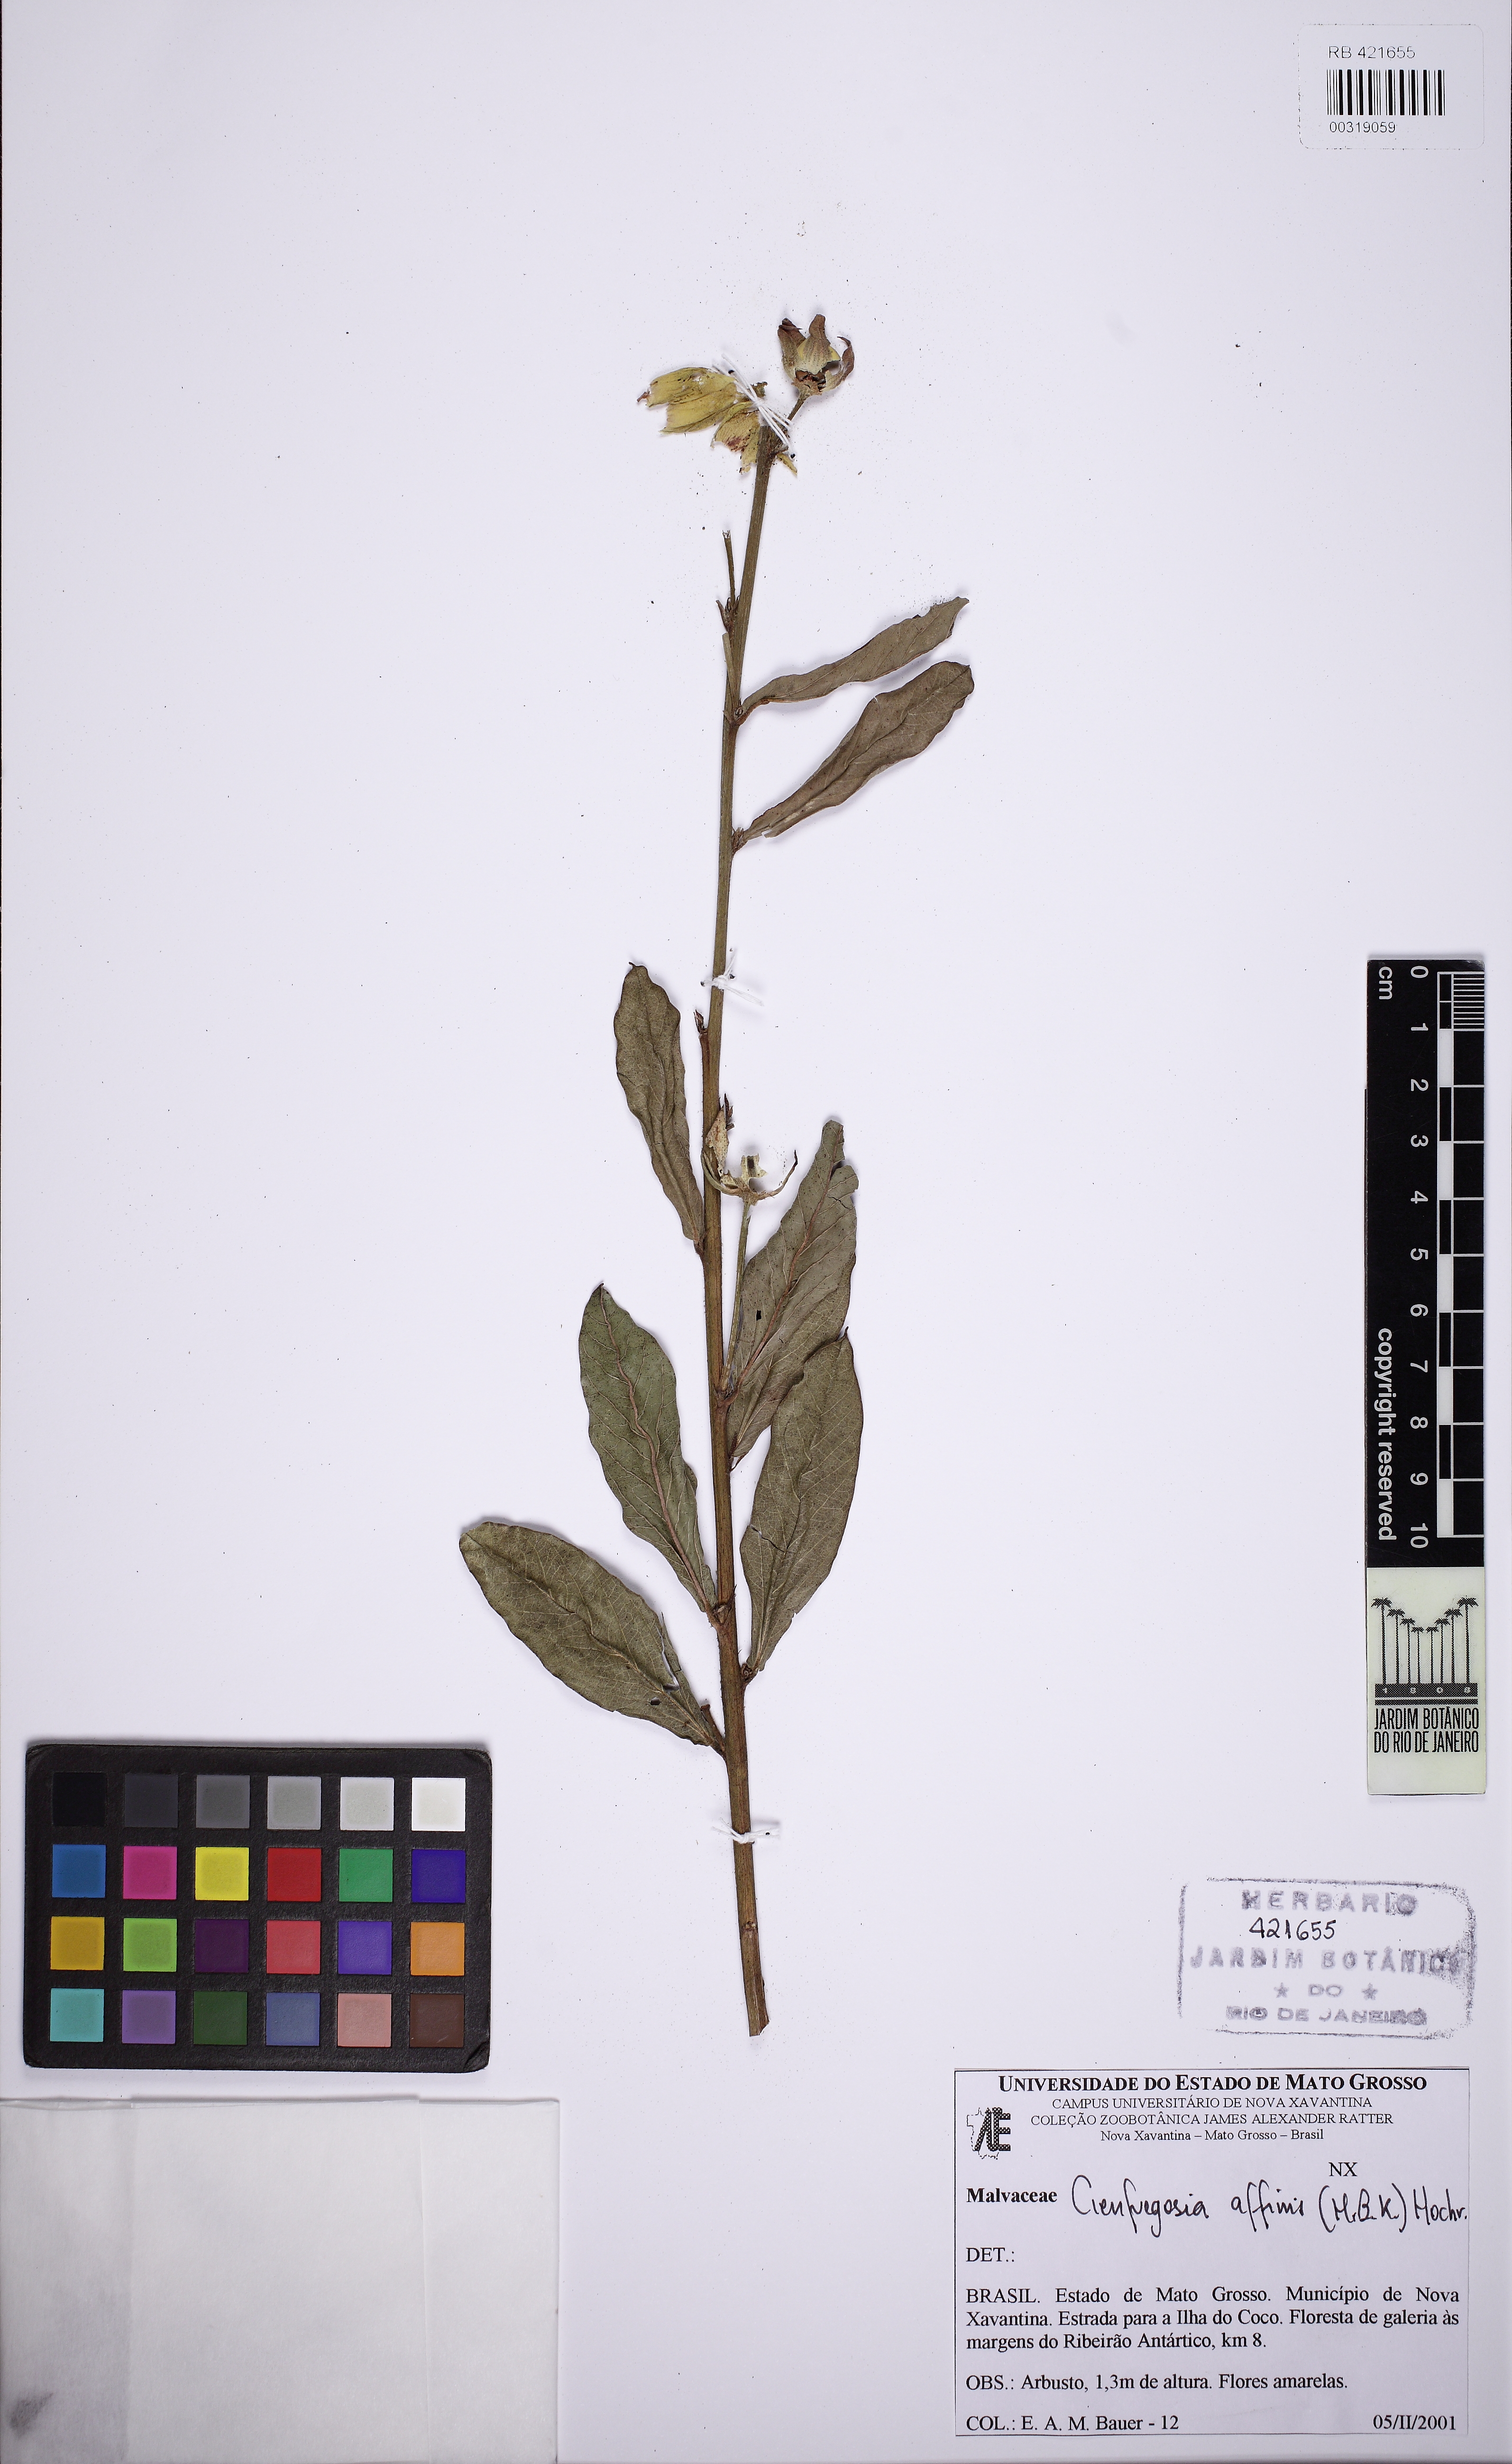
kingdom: Plantae
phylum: Tracheophyta
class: Magnoliopsida
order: Malvales
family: Malvaceae
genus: Cienfuegosia
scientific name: Cienfuegosia affinis
